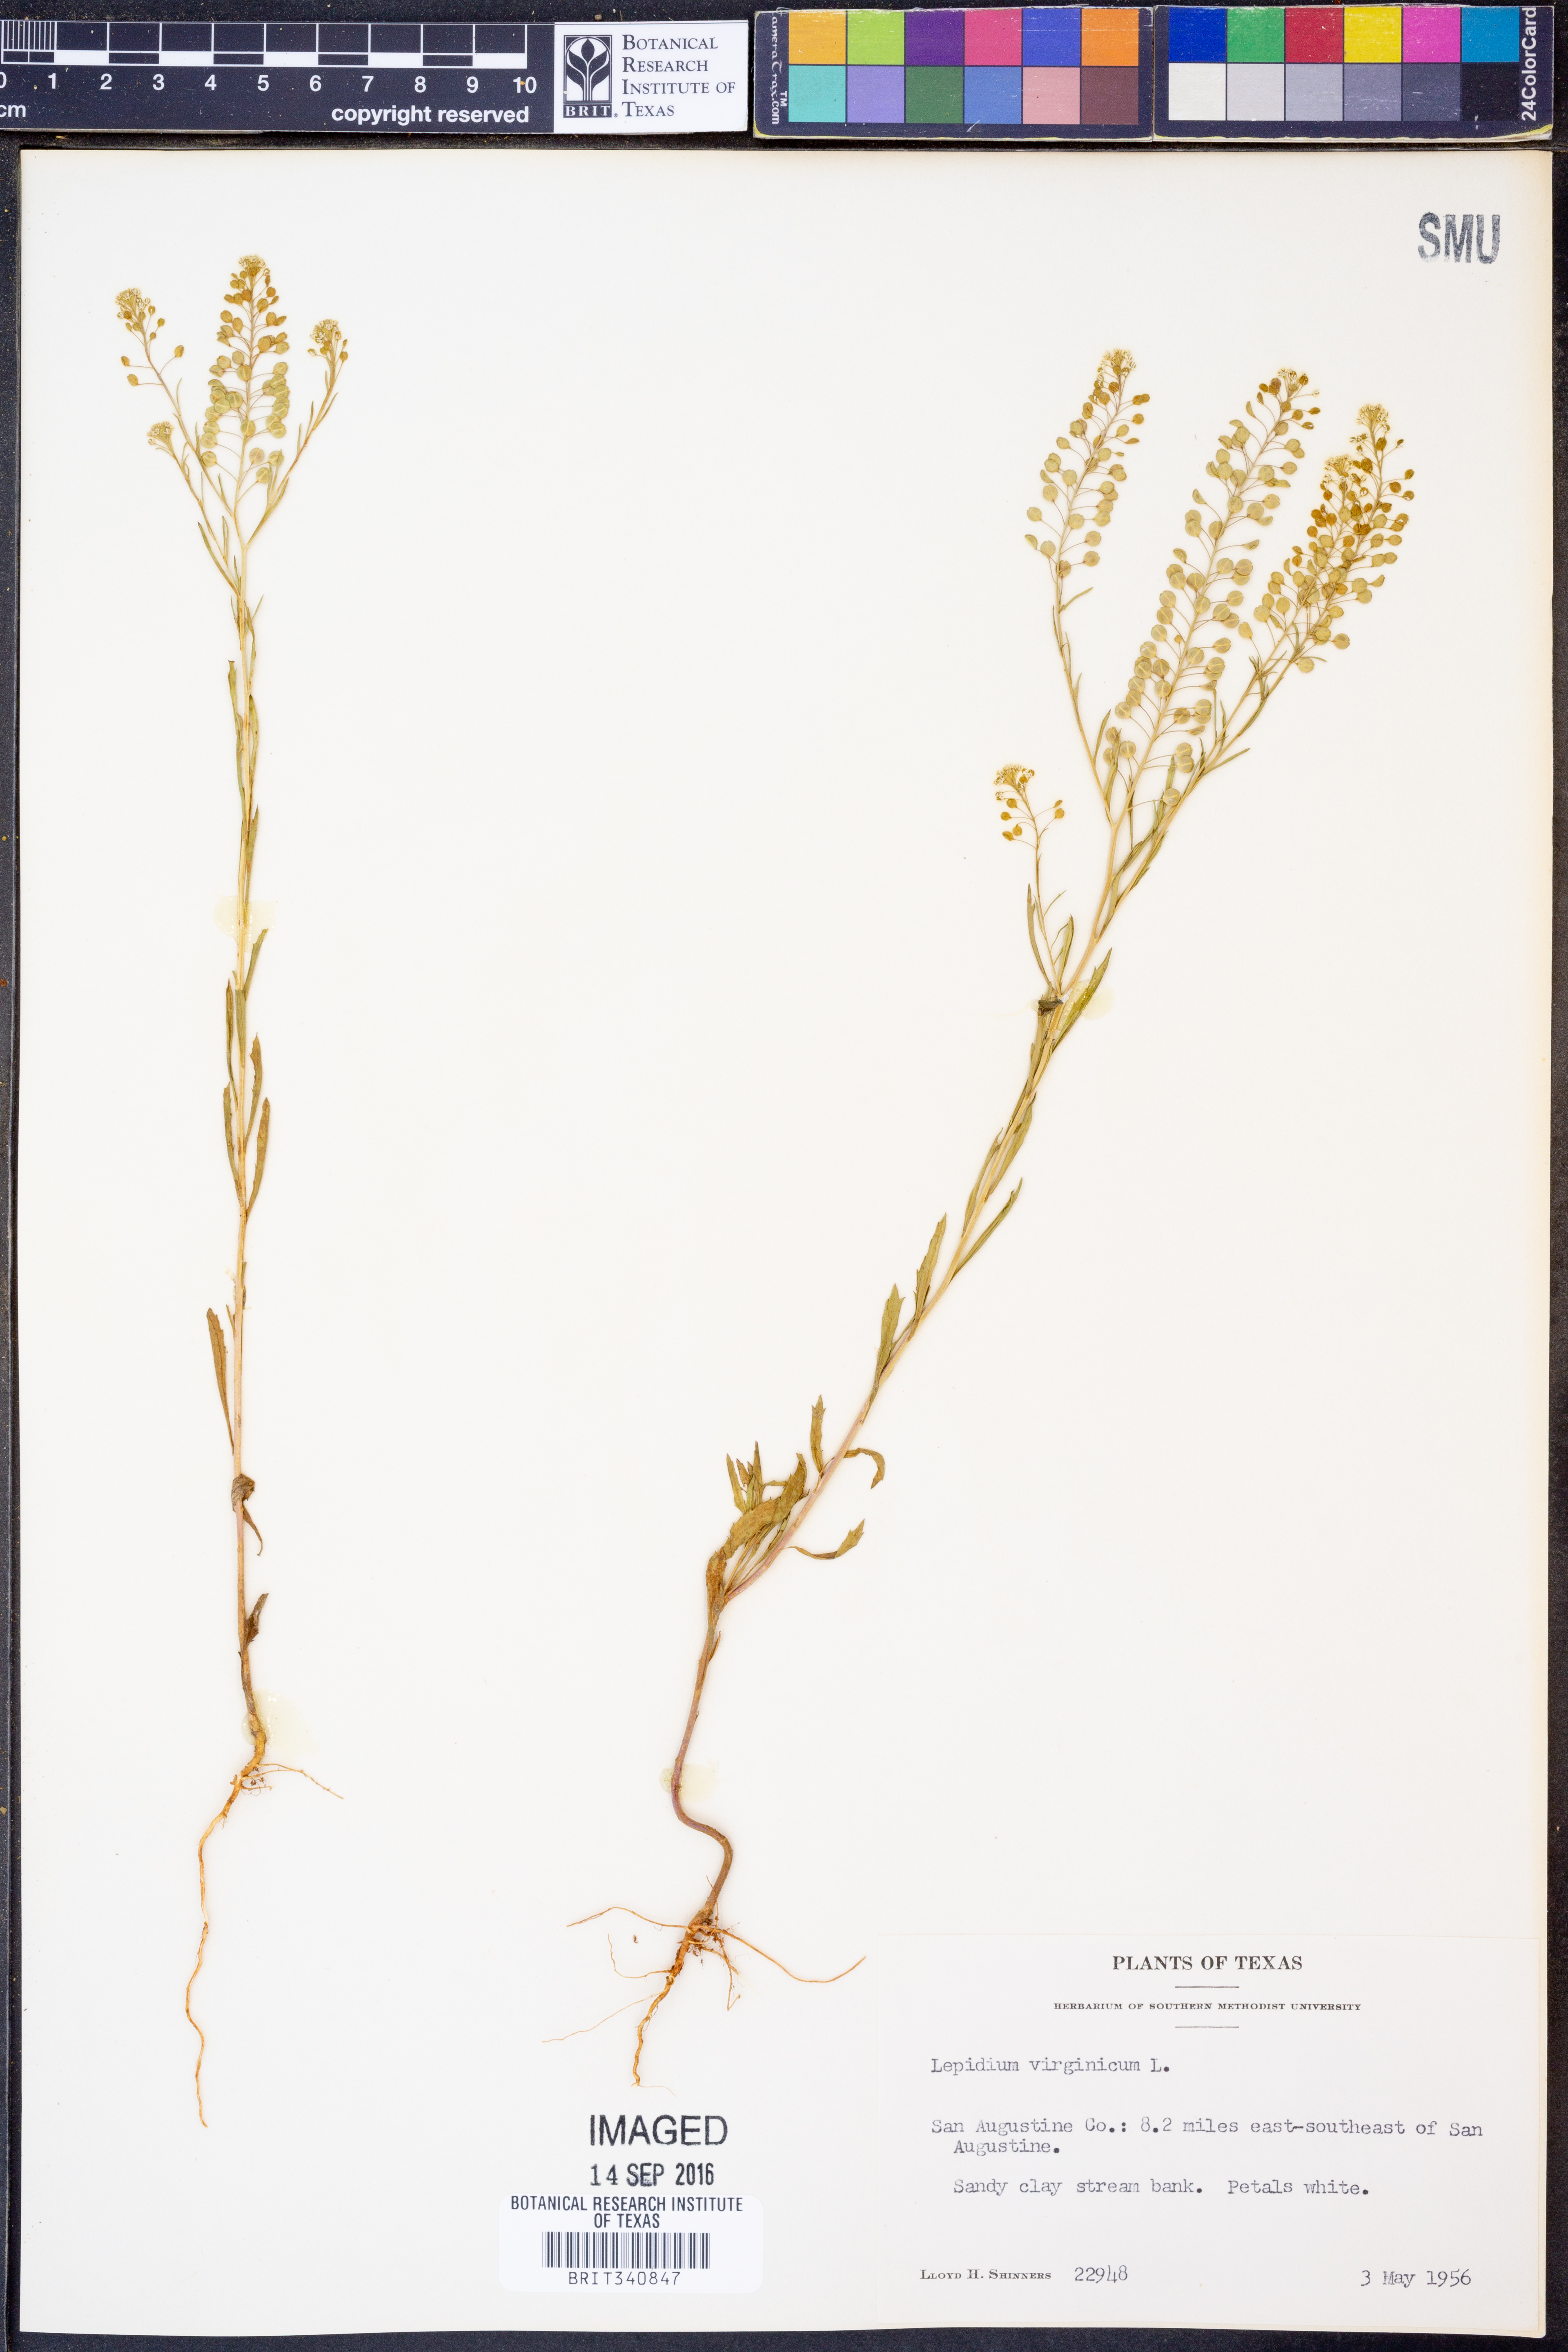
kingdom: Plantae
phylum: Tracheophyta
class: Magnoliopsida
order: Brassicales
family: Brassicaceae
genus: Lepidium
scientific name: Lepidium virginicum
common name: Least pepperwort
